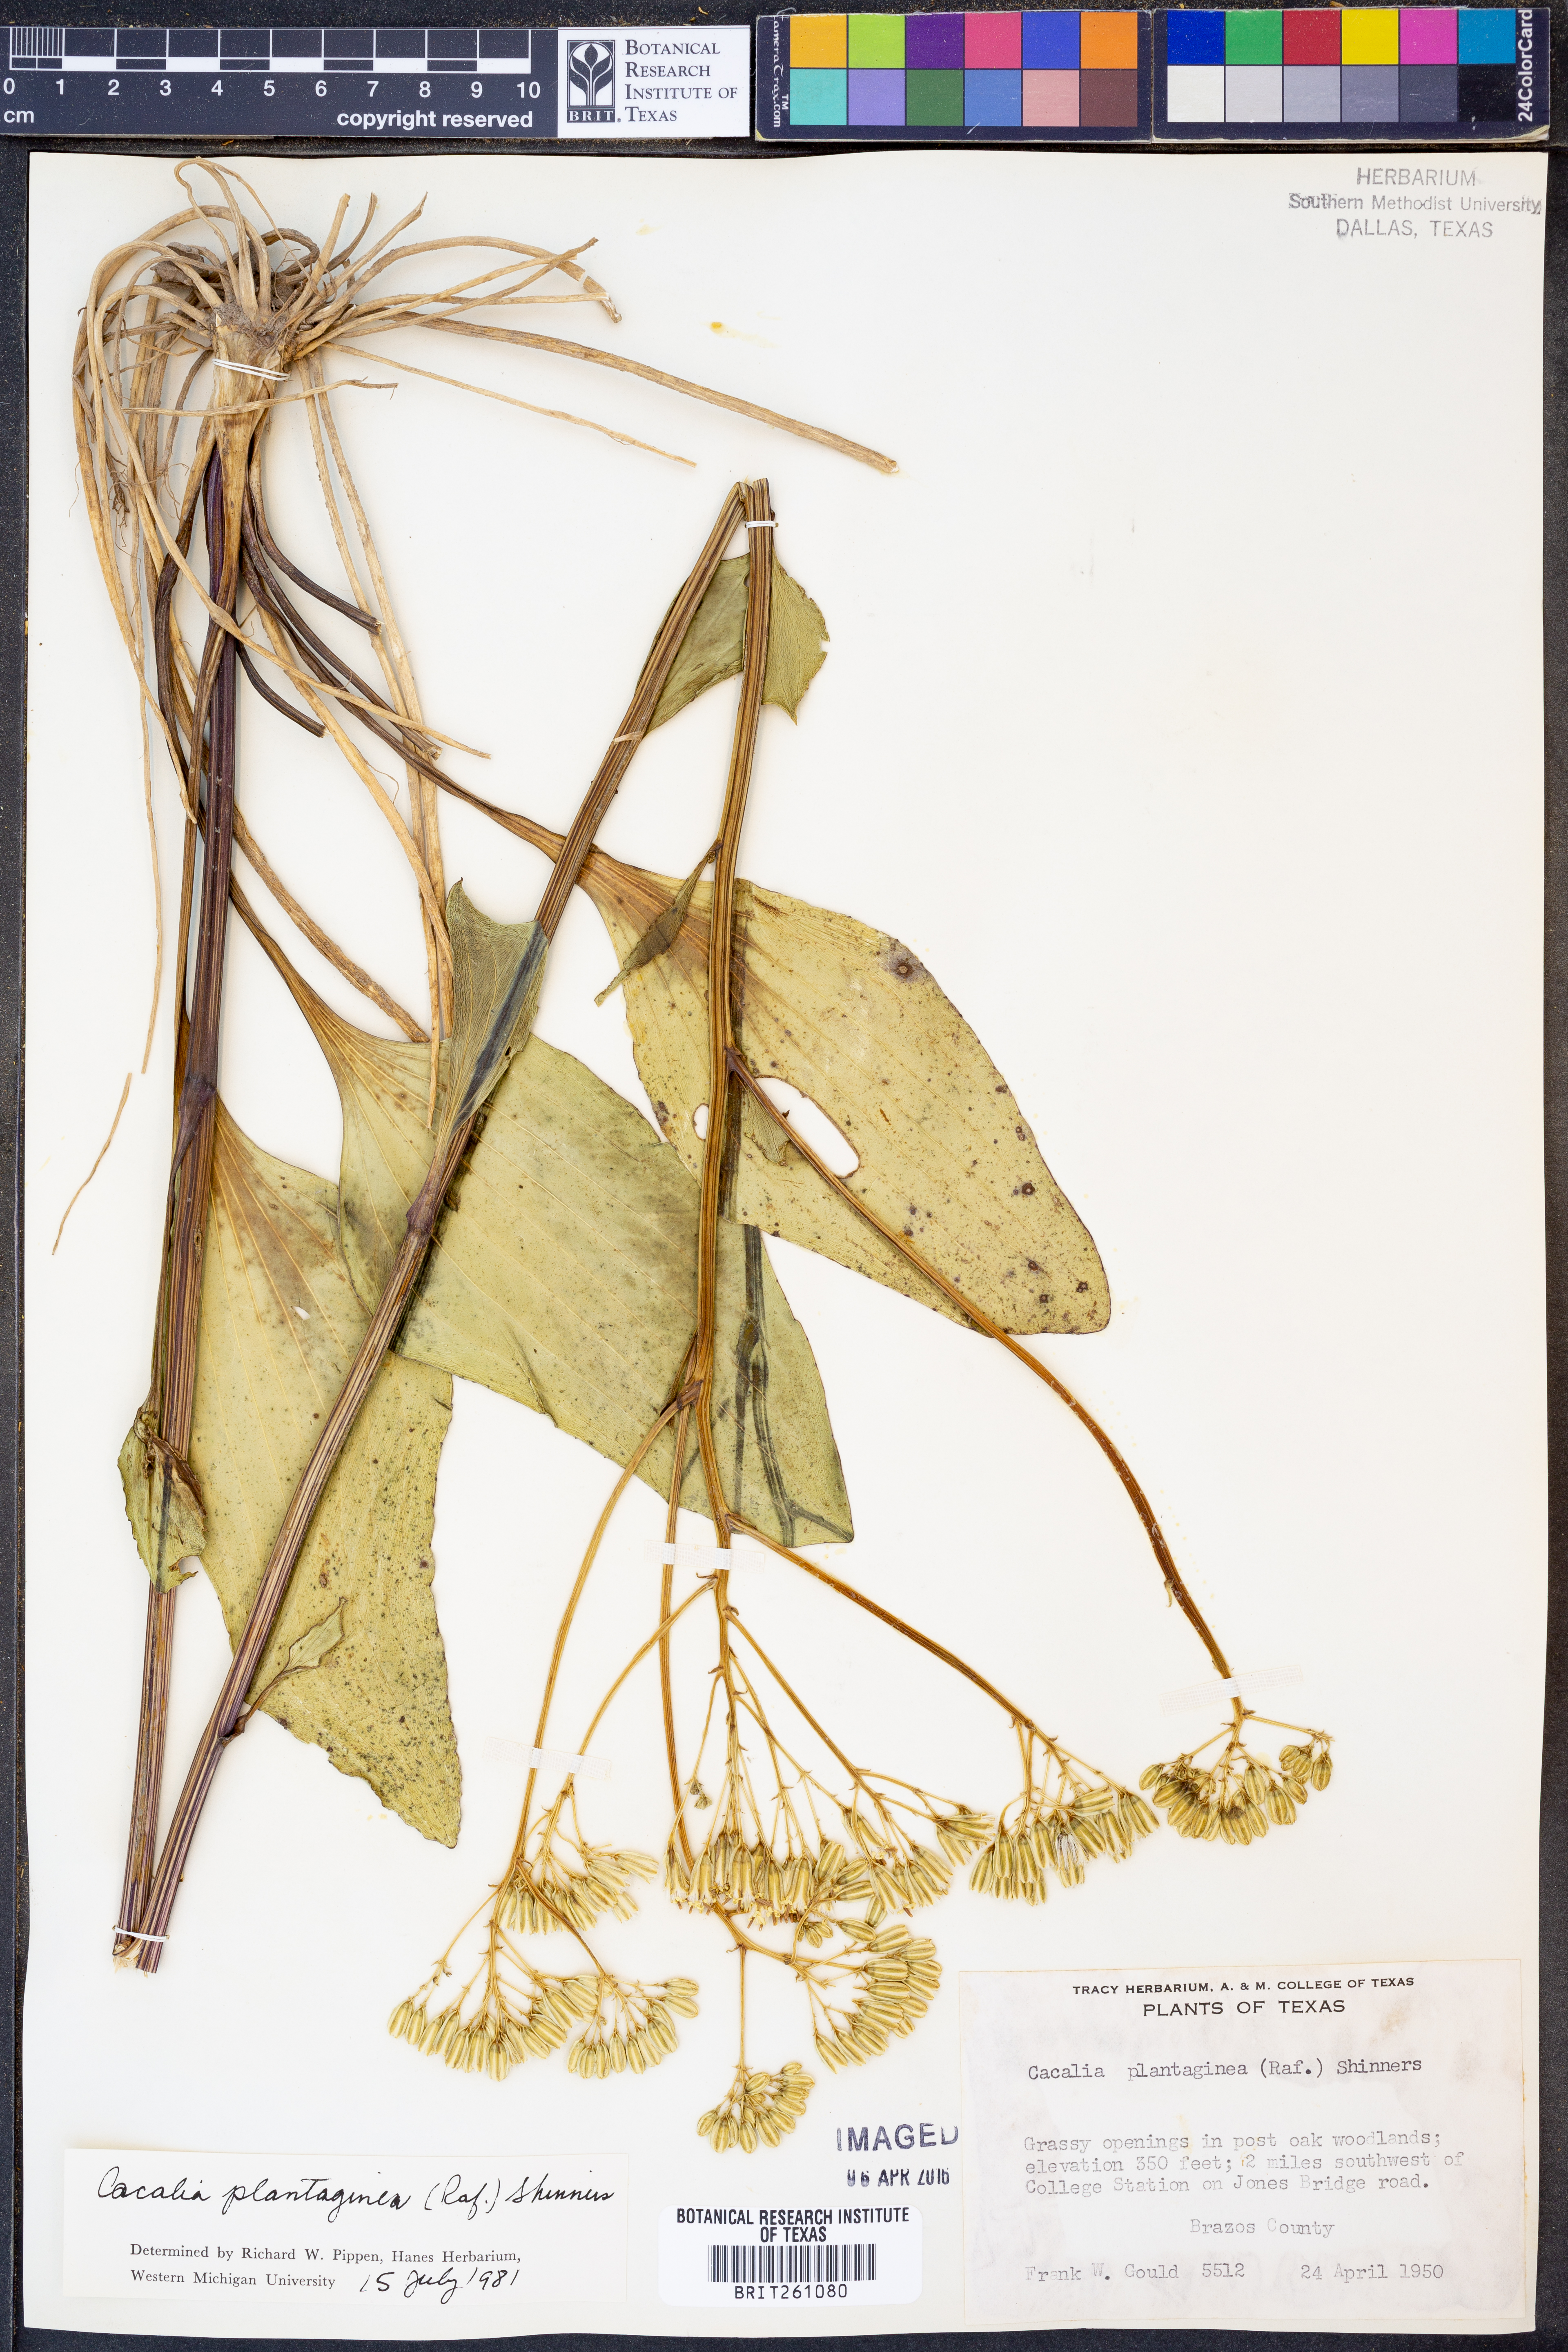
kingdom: Plantae
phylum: Tracheophyta
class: Magnoliopsida
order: Asterales
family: Asteraceae
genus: Arnoglossum
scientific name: Arnoglossum plantagineum
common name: Groove-stemmed indian-plantain
